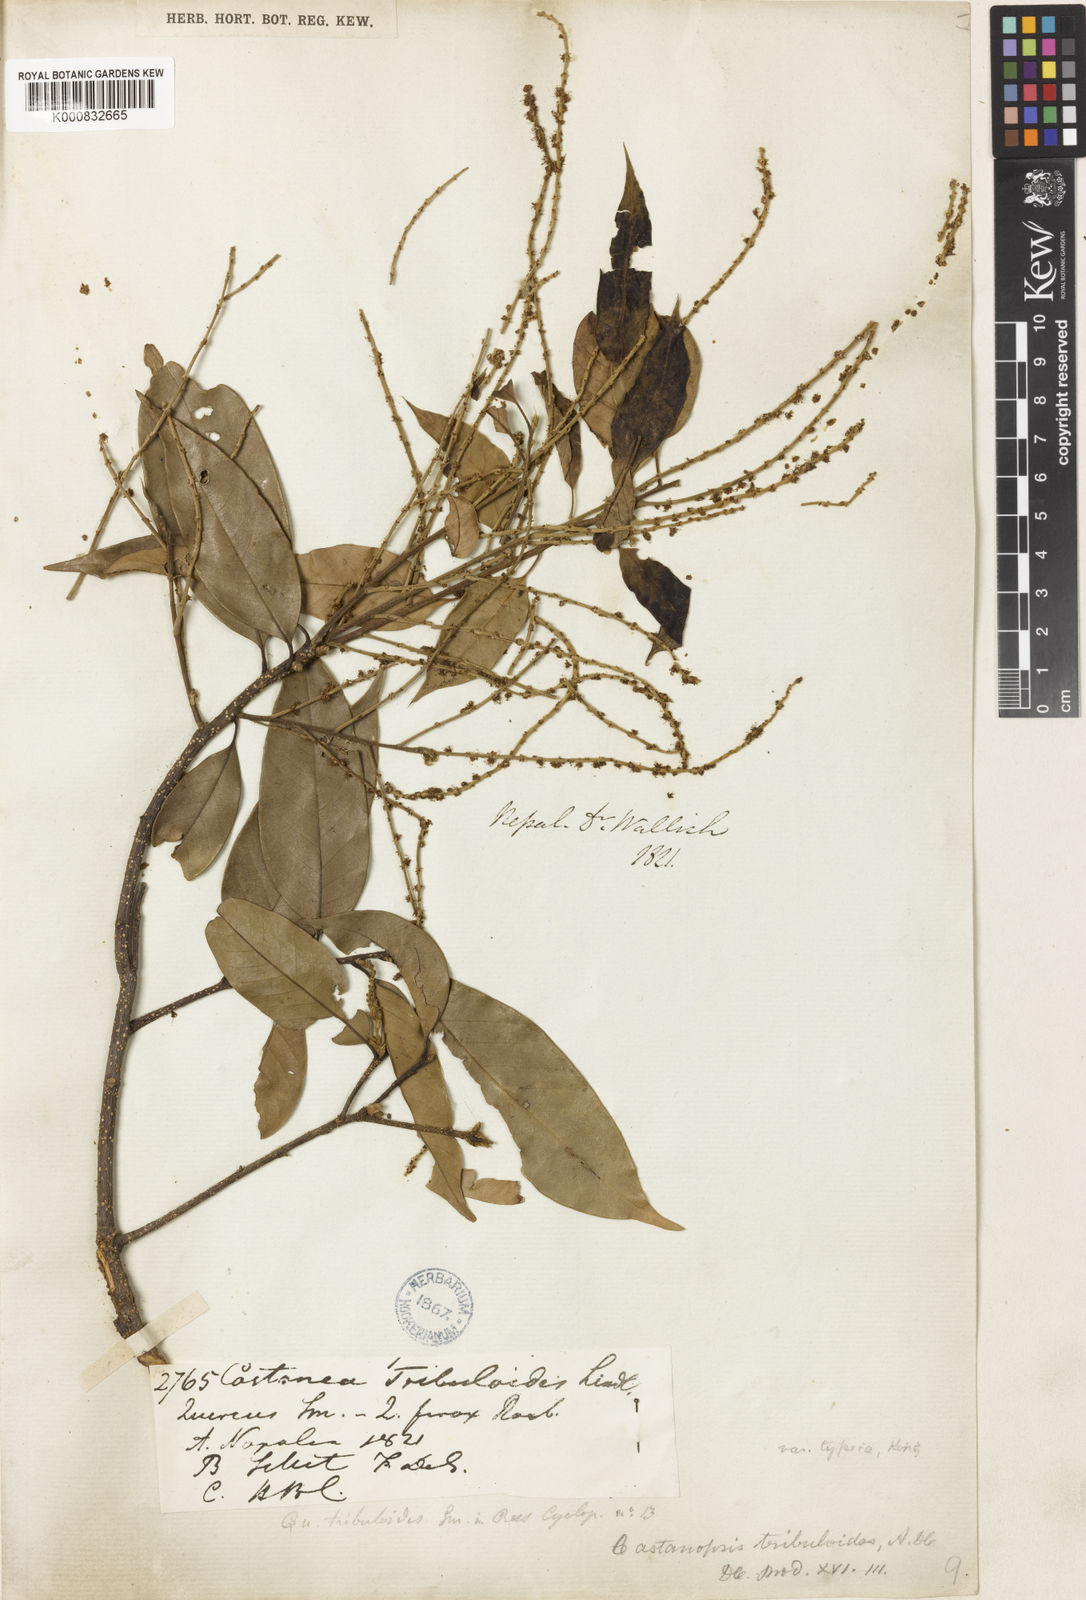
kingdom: Plantae
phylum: Tracheophyta
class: Magnoliopsida
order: Fagales
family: Fagaceae
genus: Castanopsis
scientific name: Castanopsis tribuloides
